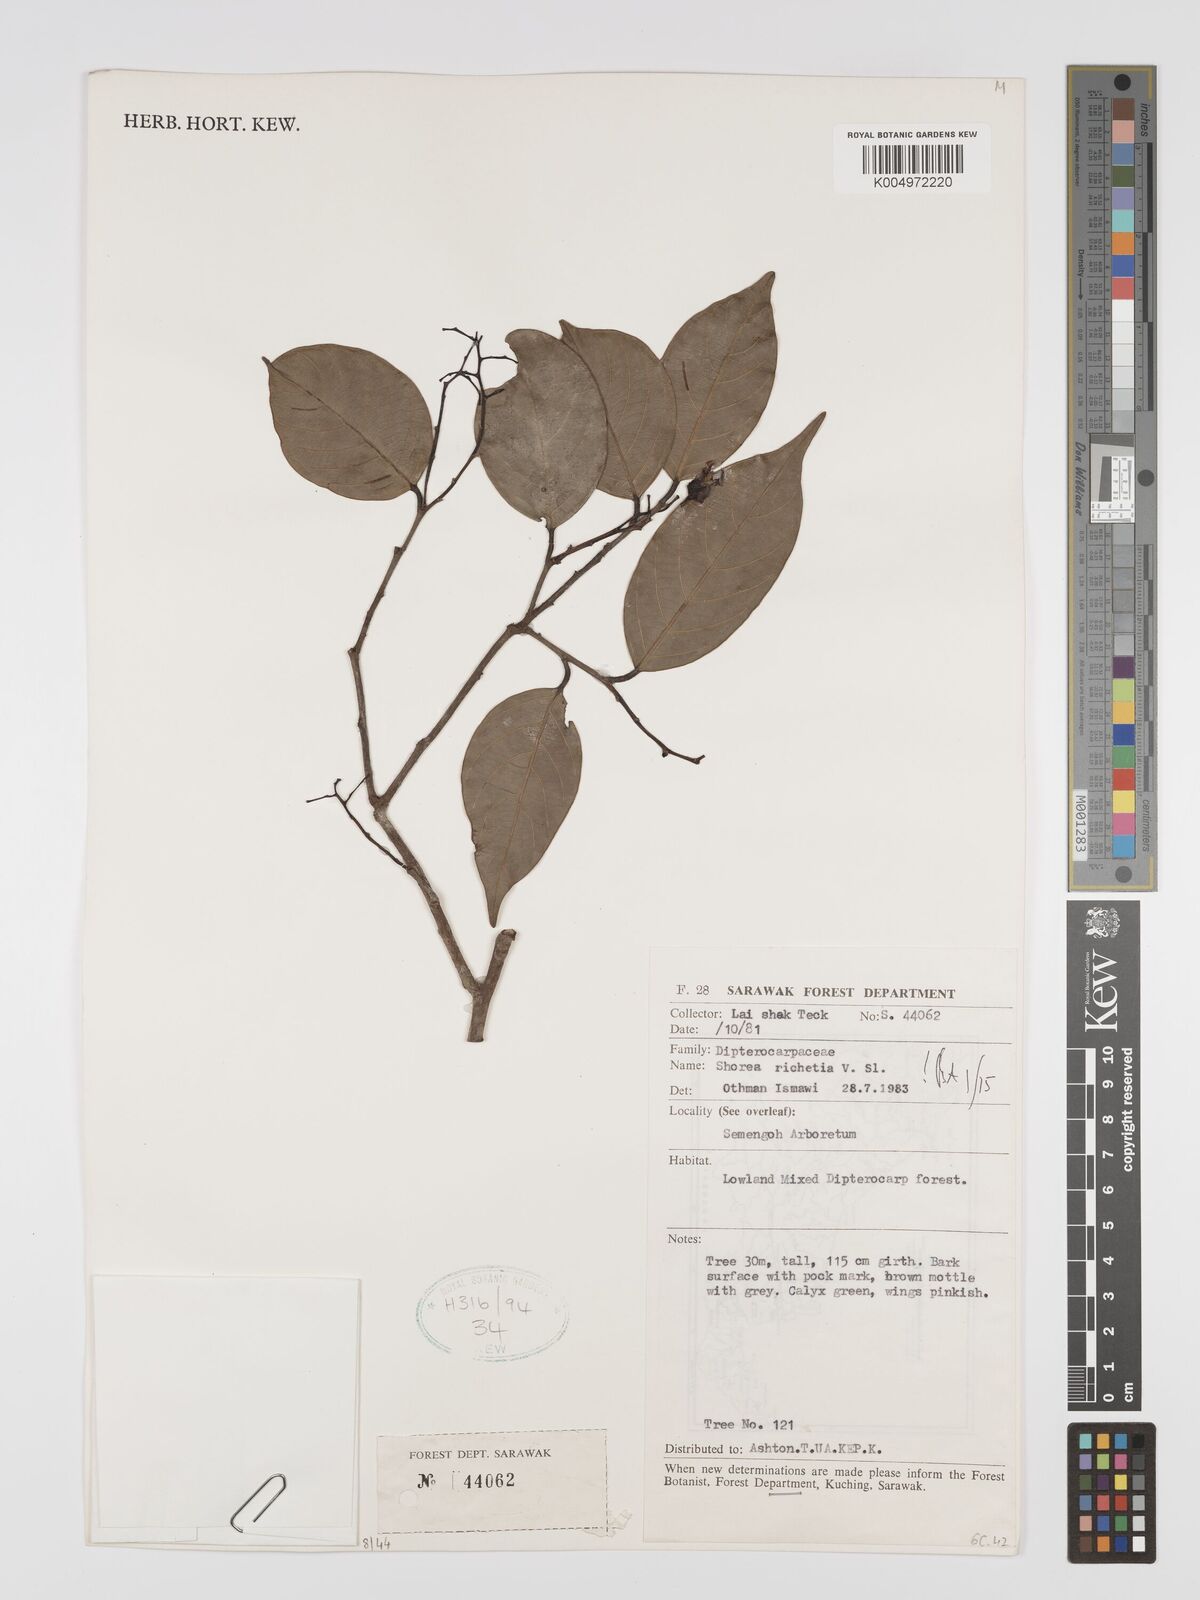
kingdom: Plantae
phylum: Tracheophyta
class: Magnoliopsida
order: Malvales
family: Dipterocarpaceae
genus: Shorea
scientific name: Shorea richetia
